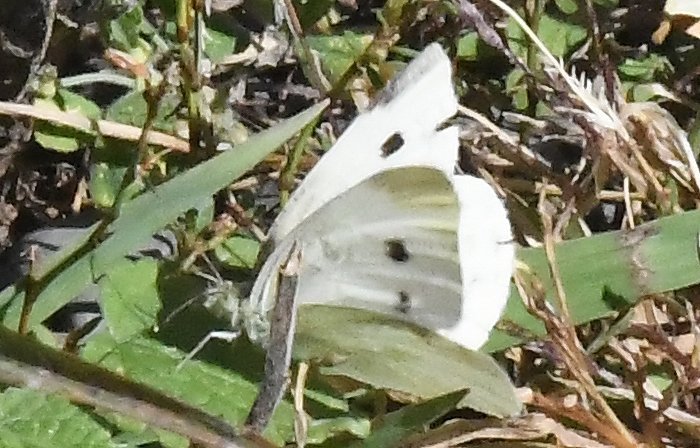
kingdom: Animalia
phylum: Arthropoda
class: Insecta
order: Lepidoptera
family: Pieridae
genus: Pieris
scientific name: Pieris rapae
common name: Cabbage White
